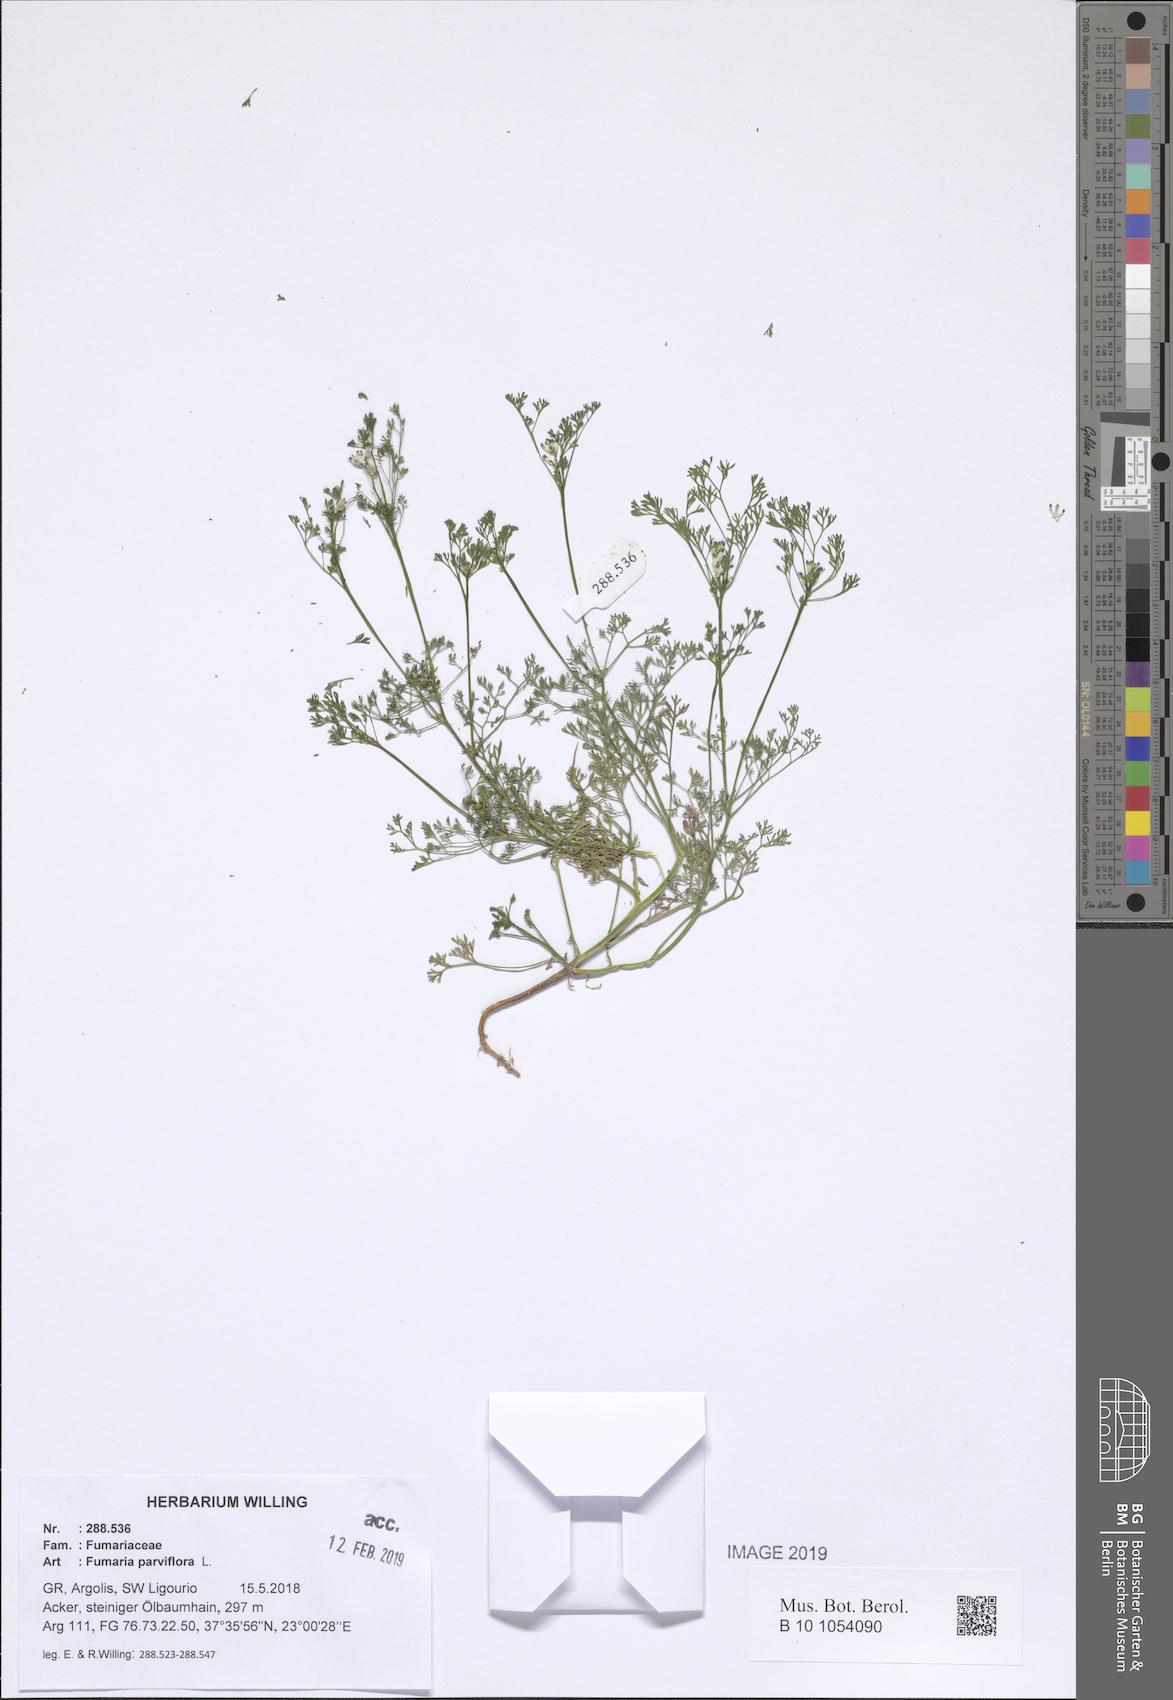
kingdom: Plantae
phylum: Tracheophyta
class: Magnoliopsida
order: Ranunculales
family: Papaveraceae
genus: Fumaria
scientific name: Fumaria parviflora
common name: Fine-leaved fumitory
